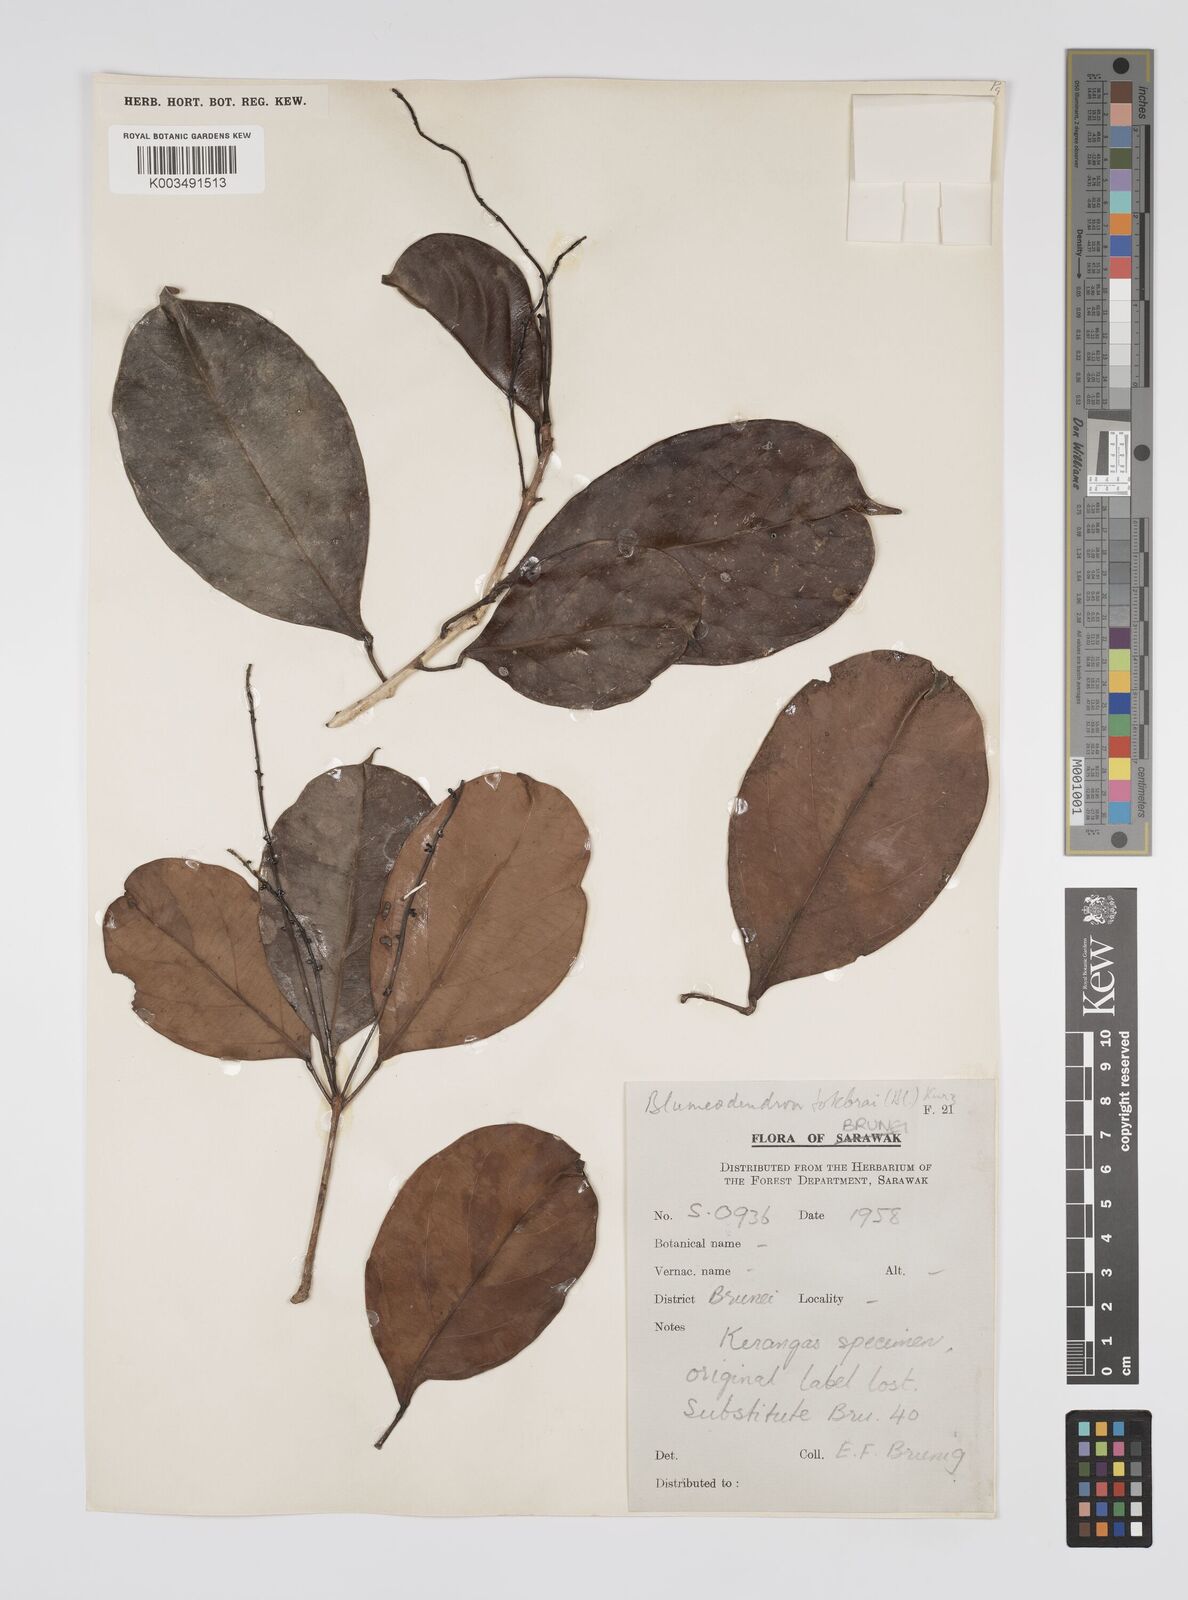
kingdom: Plantae
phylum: Tracheophyta
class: Magnoliopsida
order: Malpighiales
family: Euphorbiaceae
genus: Blumeodendron
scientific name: Blumeodendron tokbrai
